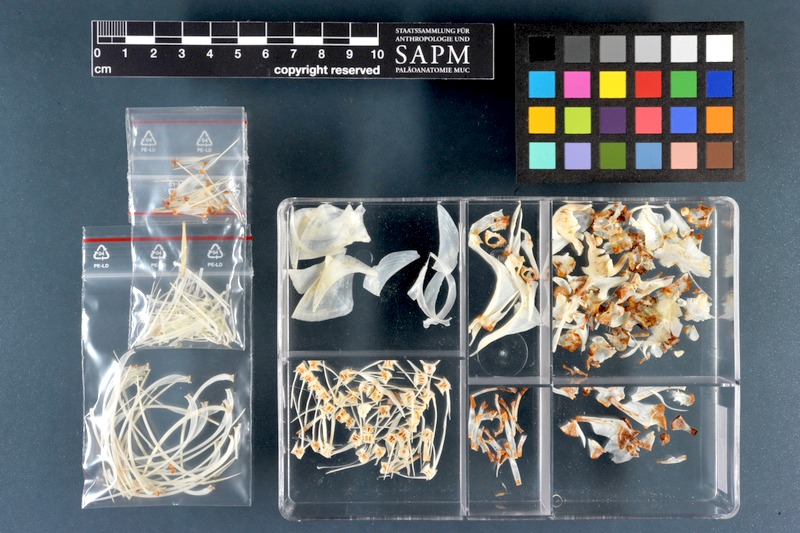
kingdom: Animalia
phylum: Chordata
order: Cypriniformes
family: Cyprinidae
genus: Rutilus
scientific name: Rutilus rutilus
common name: Roach
